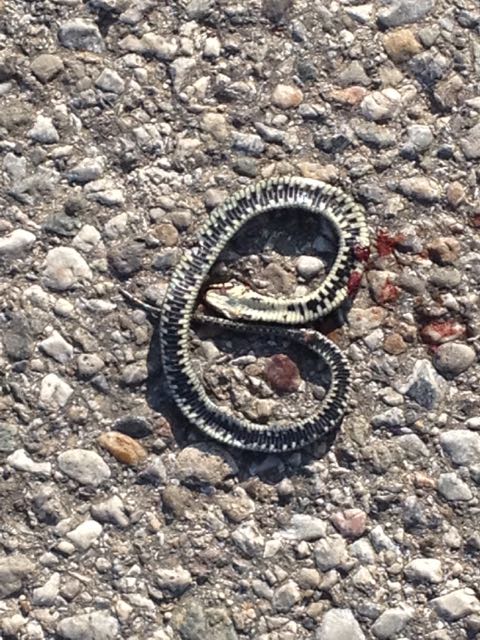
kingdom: Animalia
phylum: Chordata
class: Squamata
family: Colubridae
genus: Natrix
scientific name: Natrix natrix
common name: Grass snake
